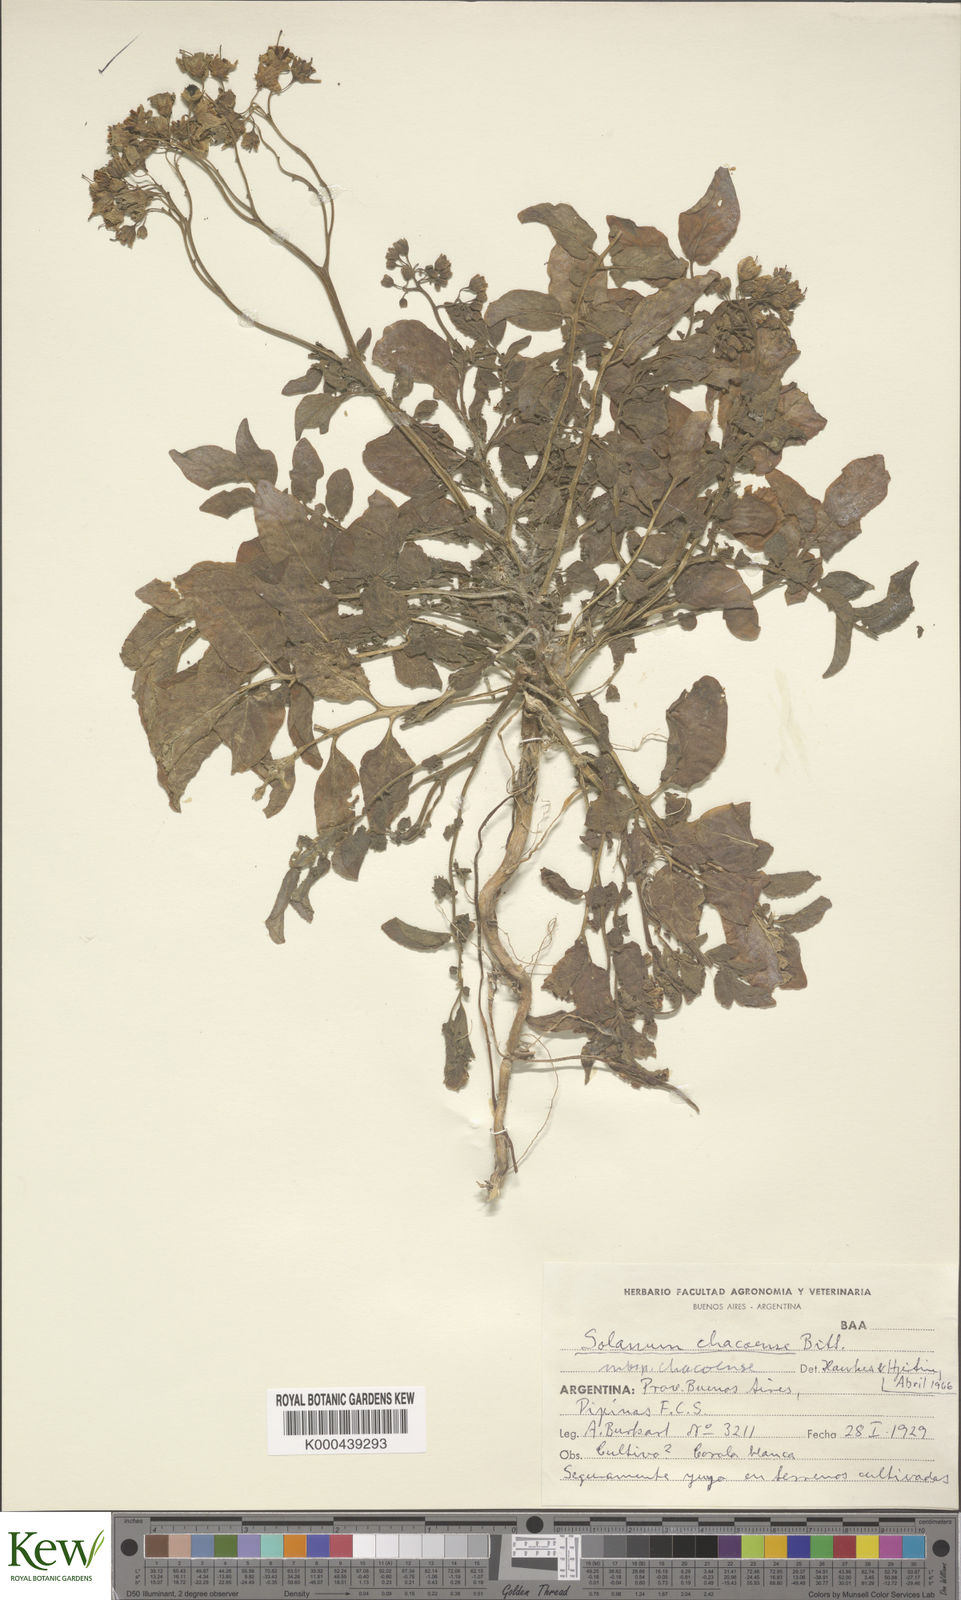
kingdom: Plantae
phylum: Tracheophyta
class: Magnoliopsida
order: Solanales
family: Solanaceae
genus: Solanum
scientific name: Solanum chacoense
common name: Chaco potato
